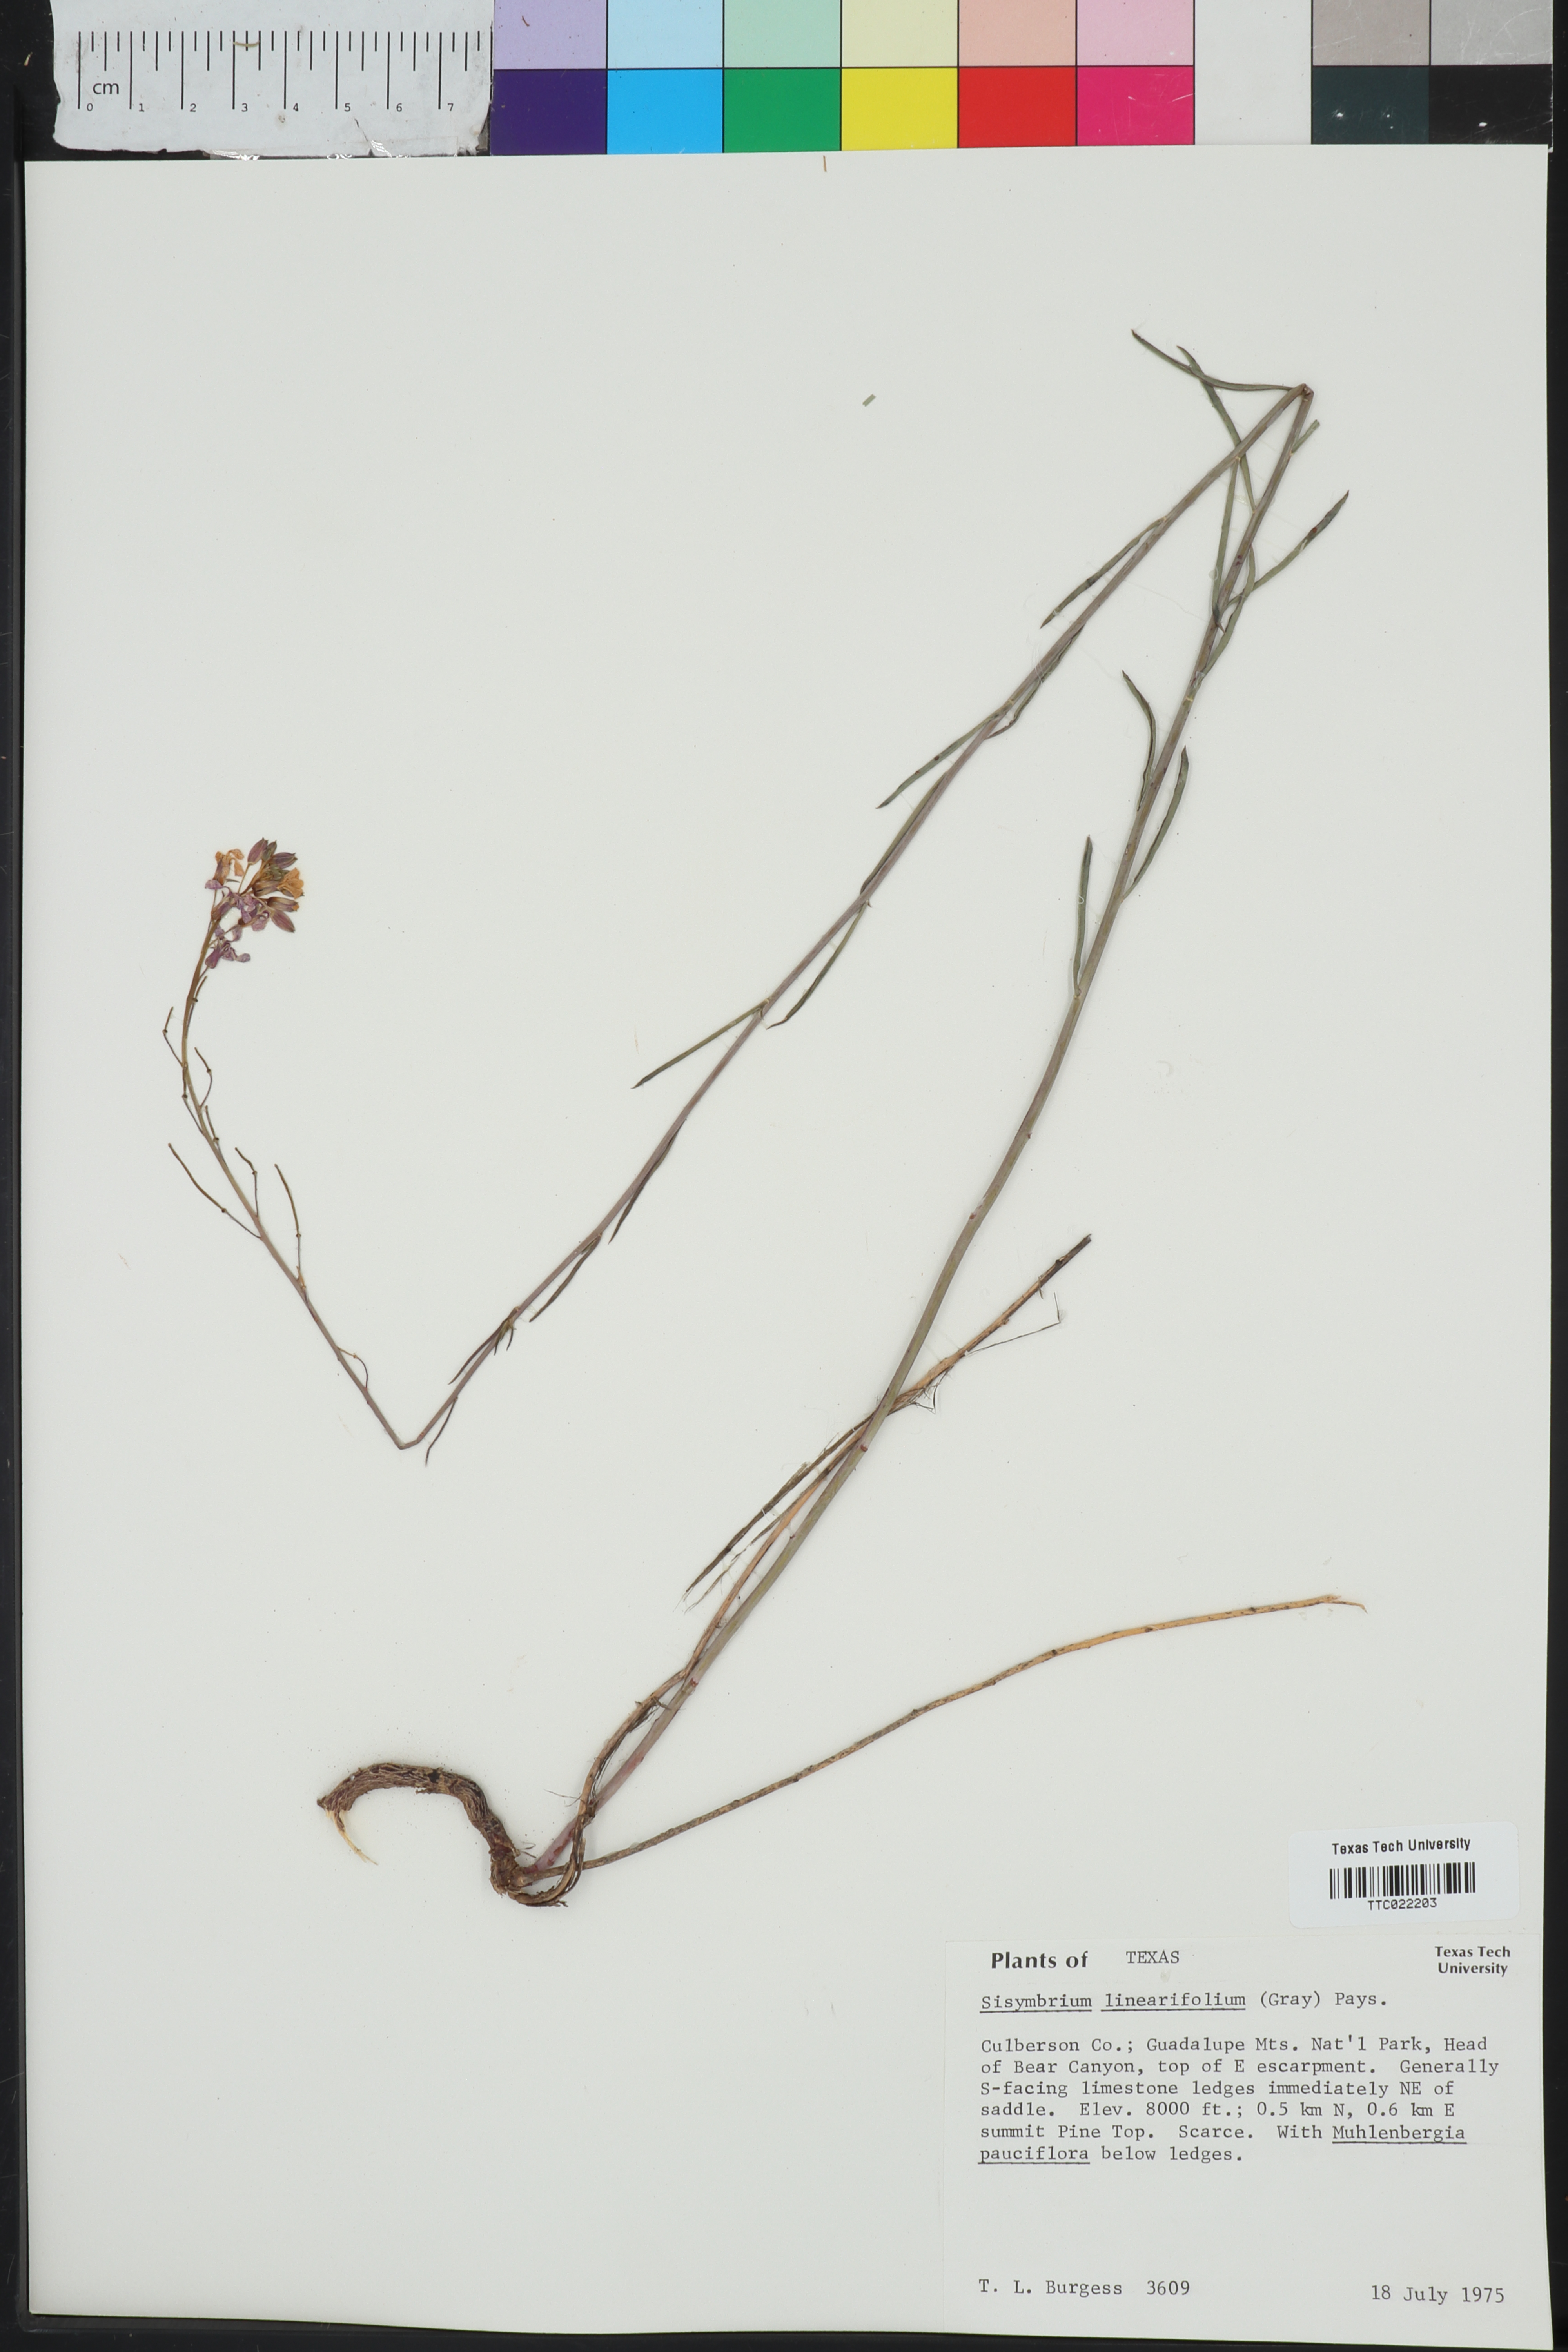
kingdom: Plantae
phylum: Tracheophyta
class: Magnoliopsida
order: Brassicales
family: Brassicaceae
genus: Hesperidanthus
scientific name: Hesperidanthus linearifolius
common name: Slim-leaf plains mustard
